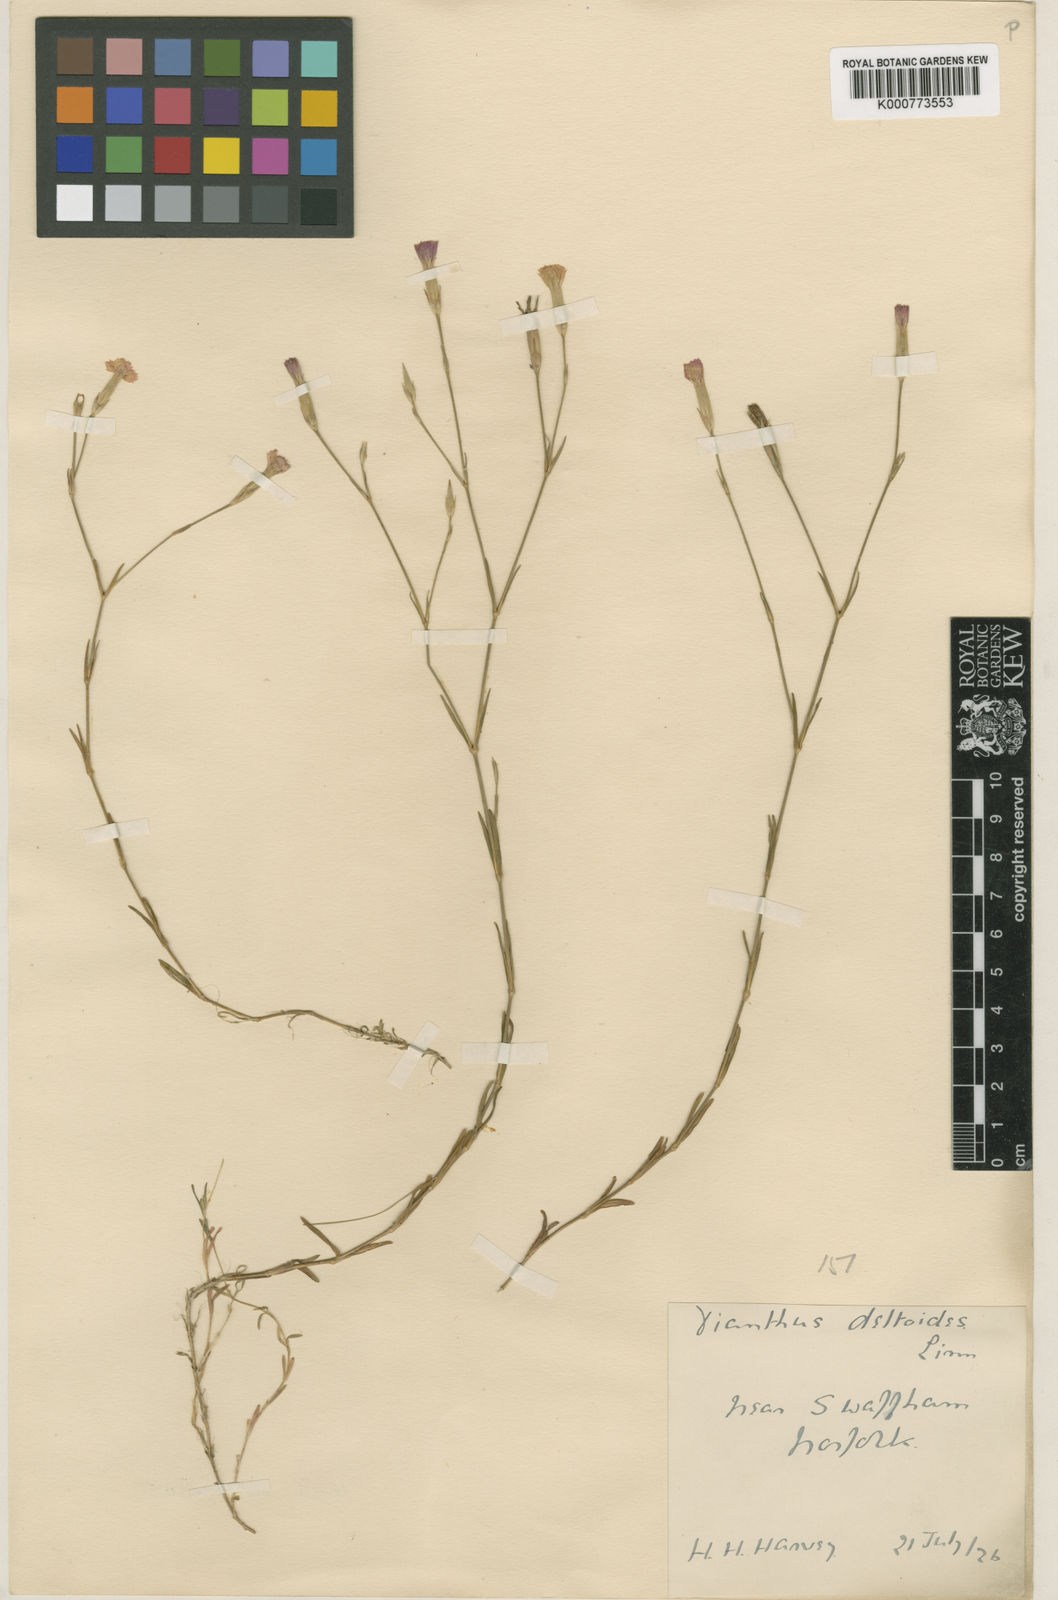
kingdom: Plantae
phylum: Tracheophyta
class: Magnoliopsida
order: Caryophyllales
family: Caryophyllaceae
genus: Dianthus
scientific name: Dianthus deltoides
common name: Maiden pink
